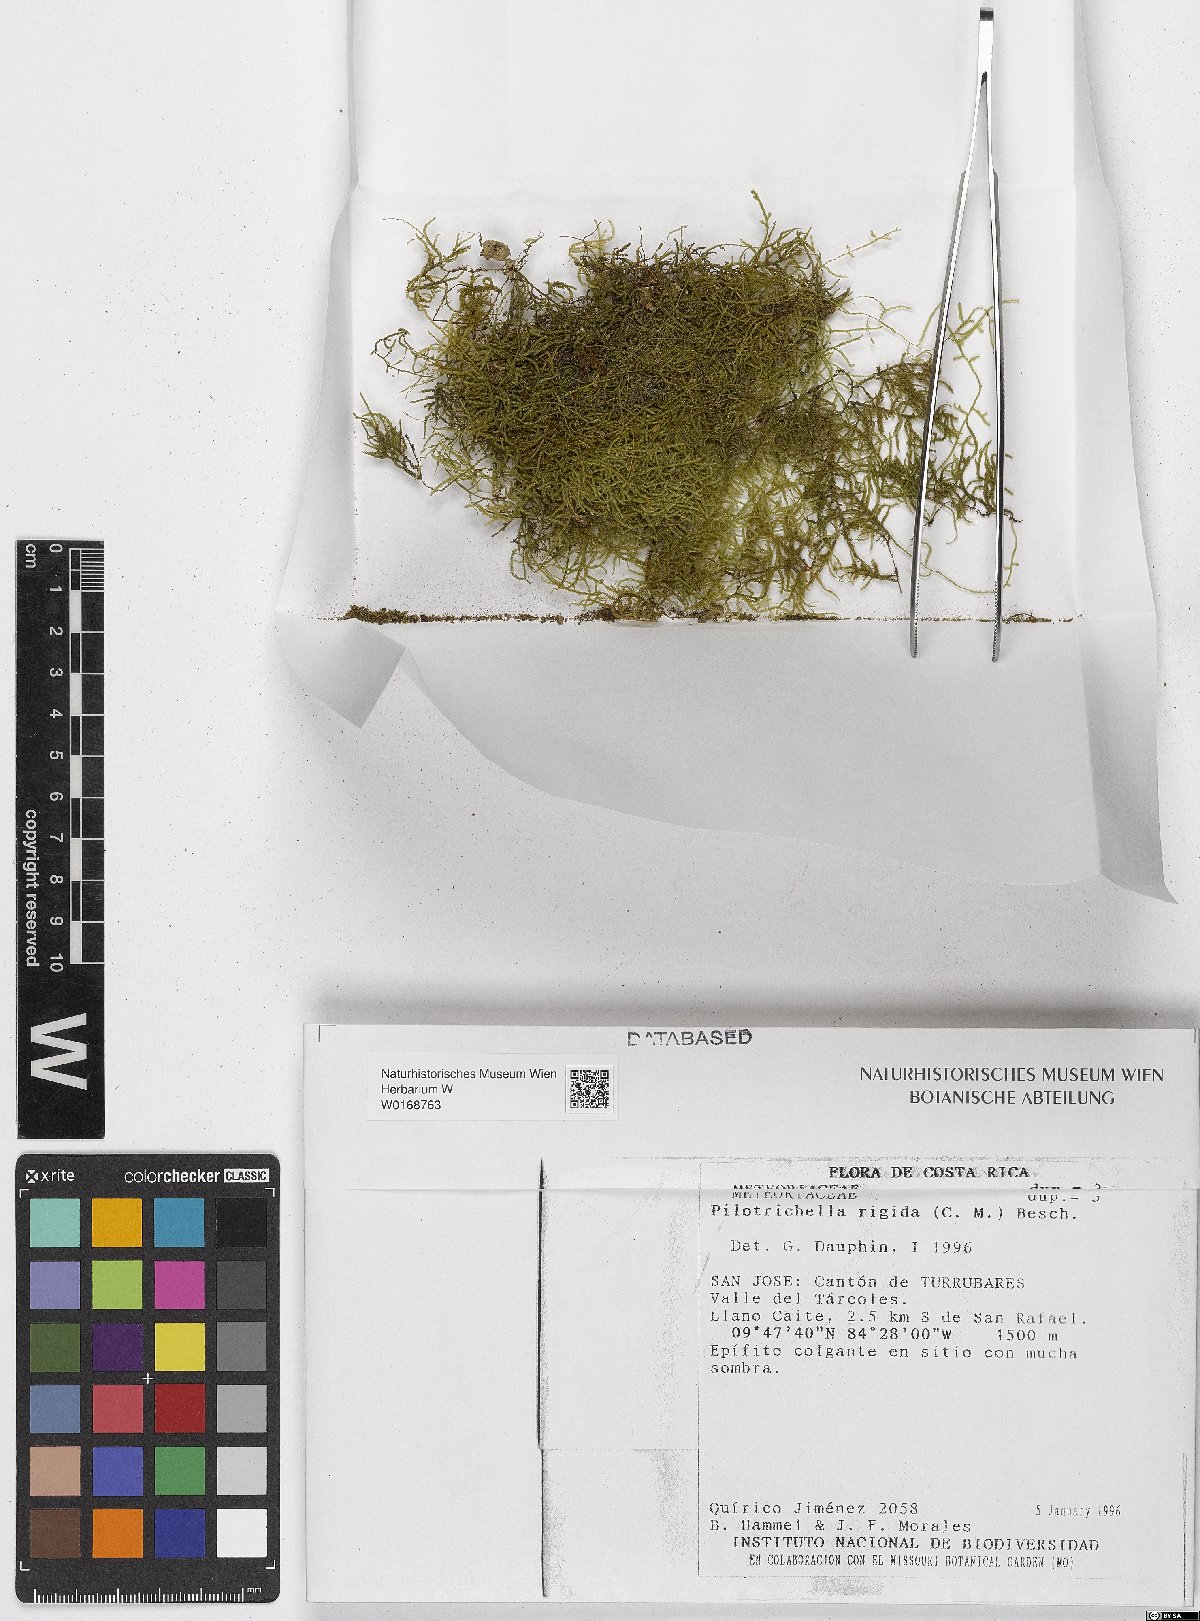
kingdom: Plantae
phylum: Bryophyta
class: Bryopsida
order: Hypnales
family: Orthostichellaceae
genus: Orthostichella
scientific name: Orthostichella rigida
